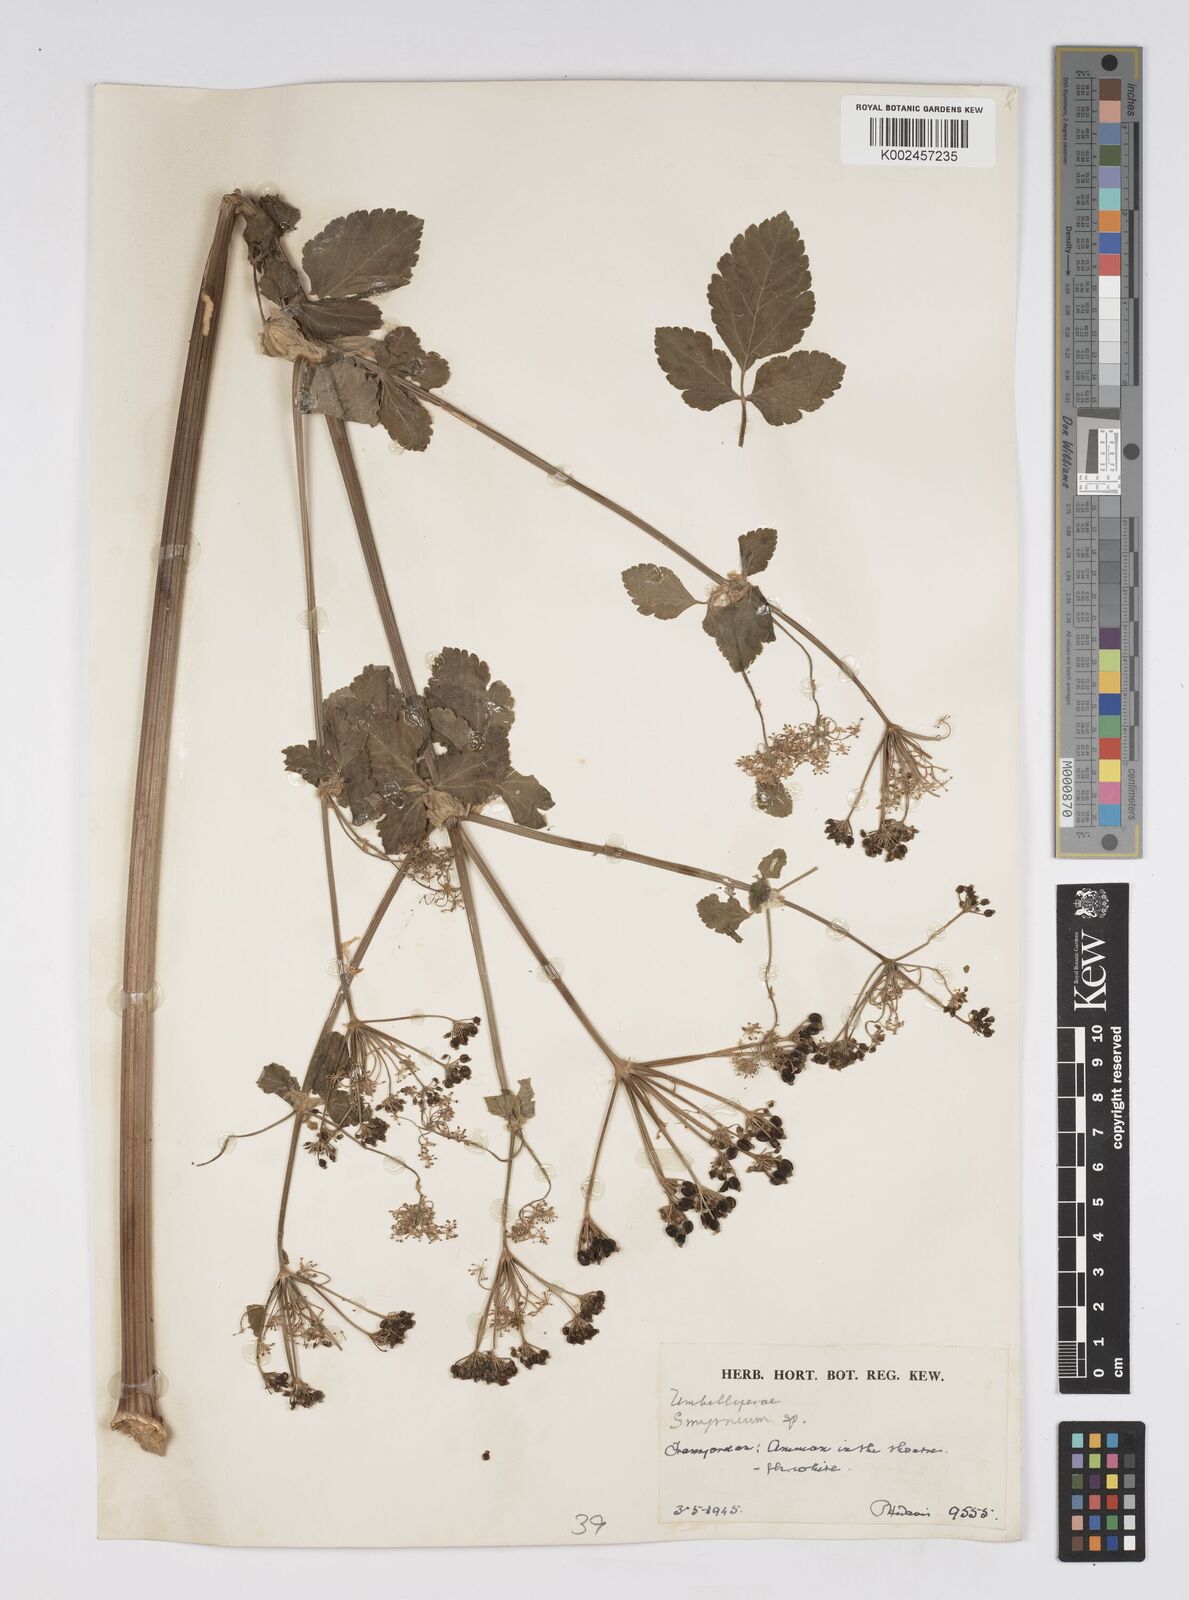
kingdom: Plantae
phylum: Tracheophyta
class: Magnoliopsida
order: Apiales
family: Apiaceae
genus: Smyrnium
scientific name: Smyrnium olusatrum
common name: Alexanders
